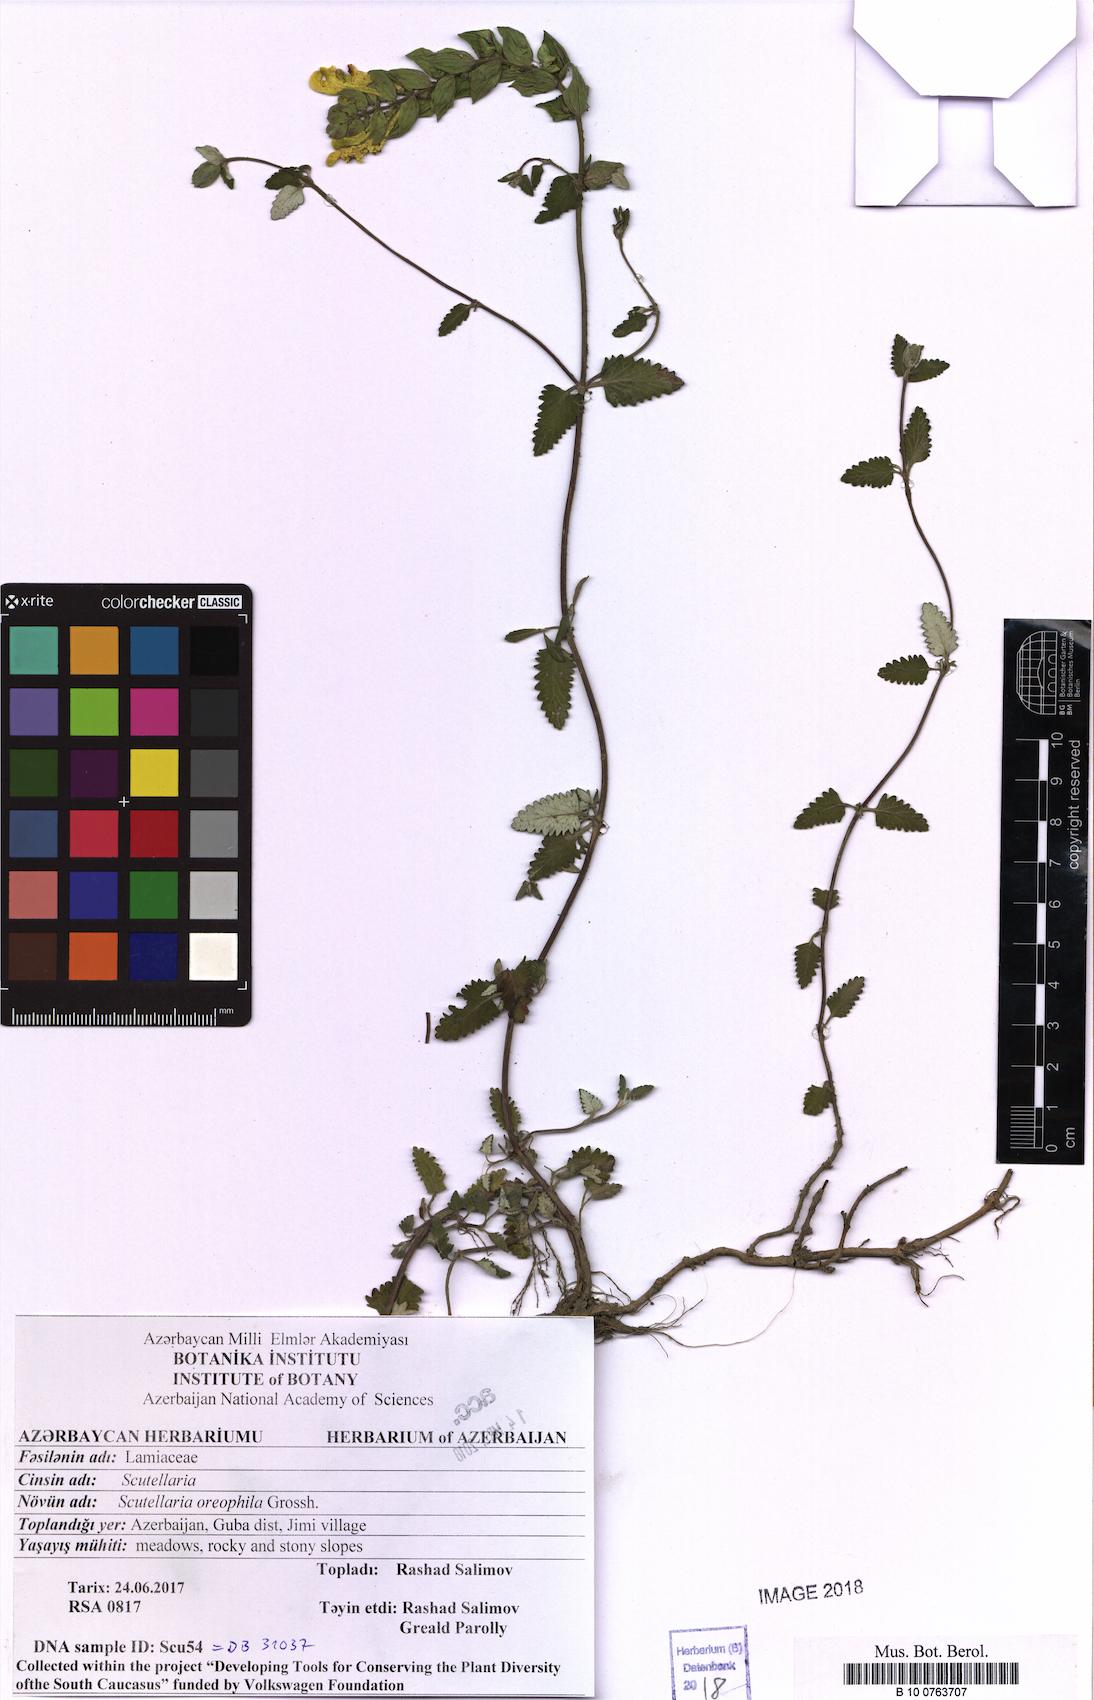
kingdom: Plantae
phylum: Tracheophyta
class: Magnoliopsida
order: Lamiales
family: Lamiaceae
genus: Scutellaria
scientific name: Scutellaria oreophila
